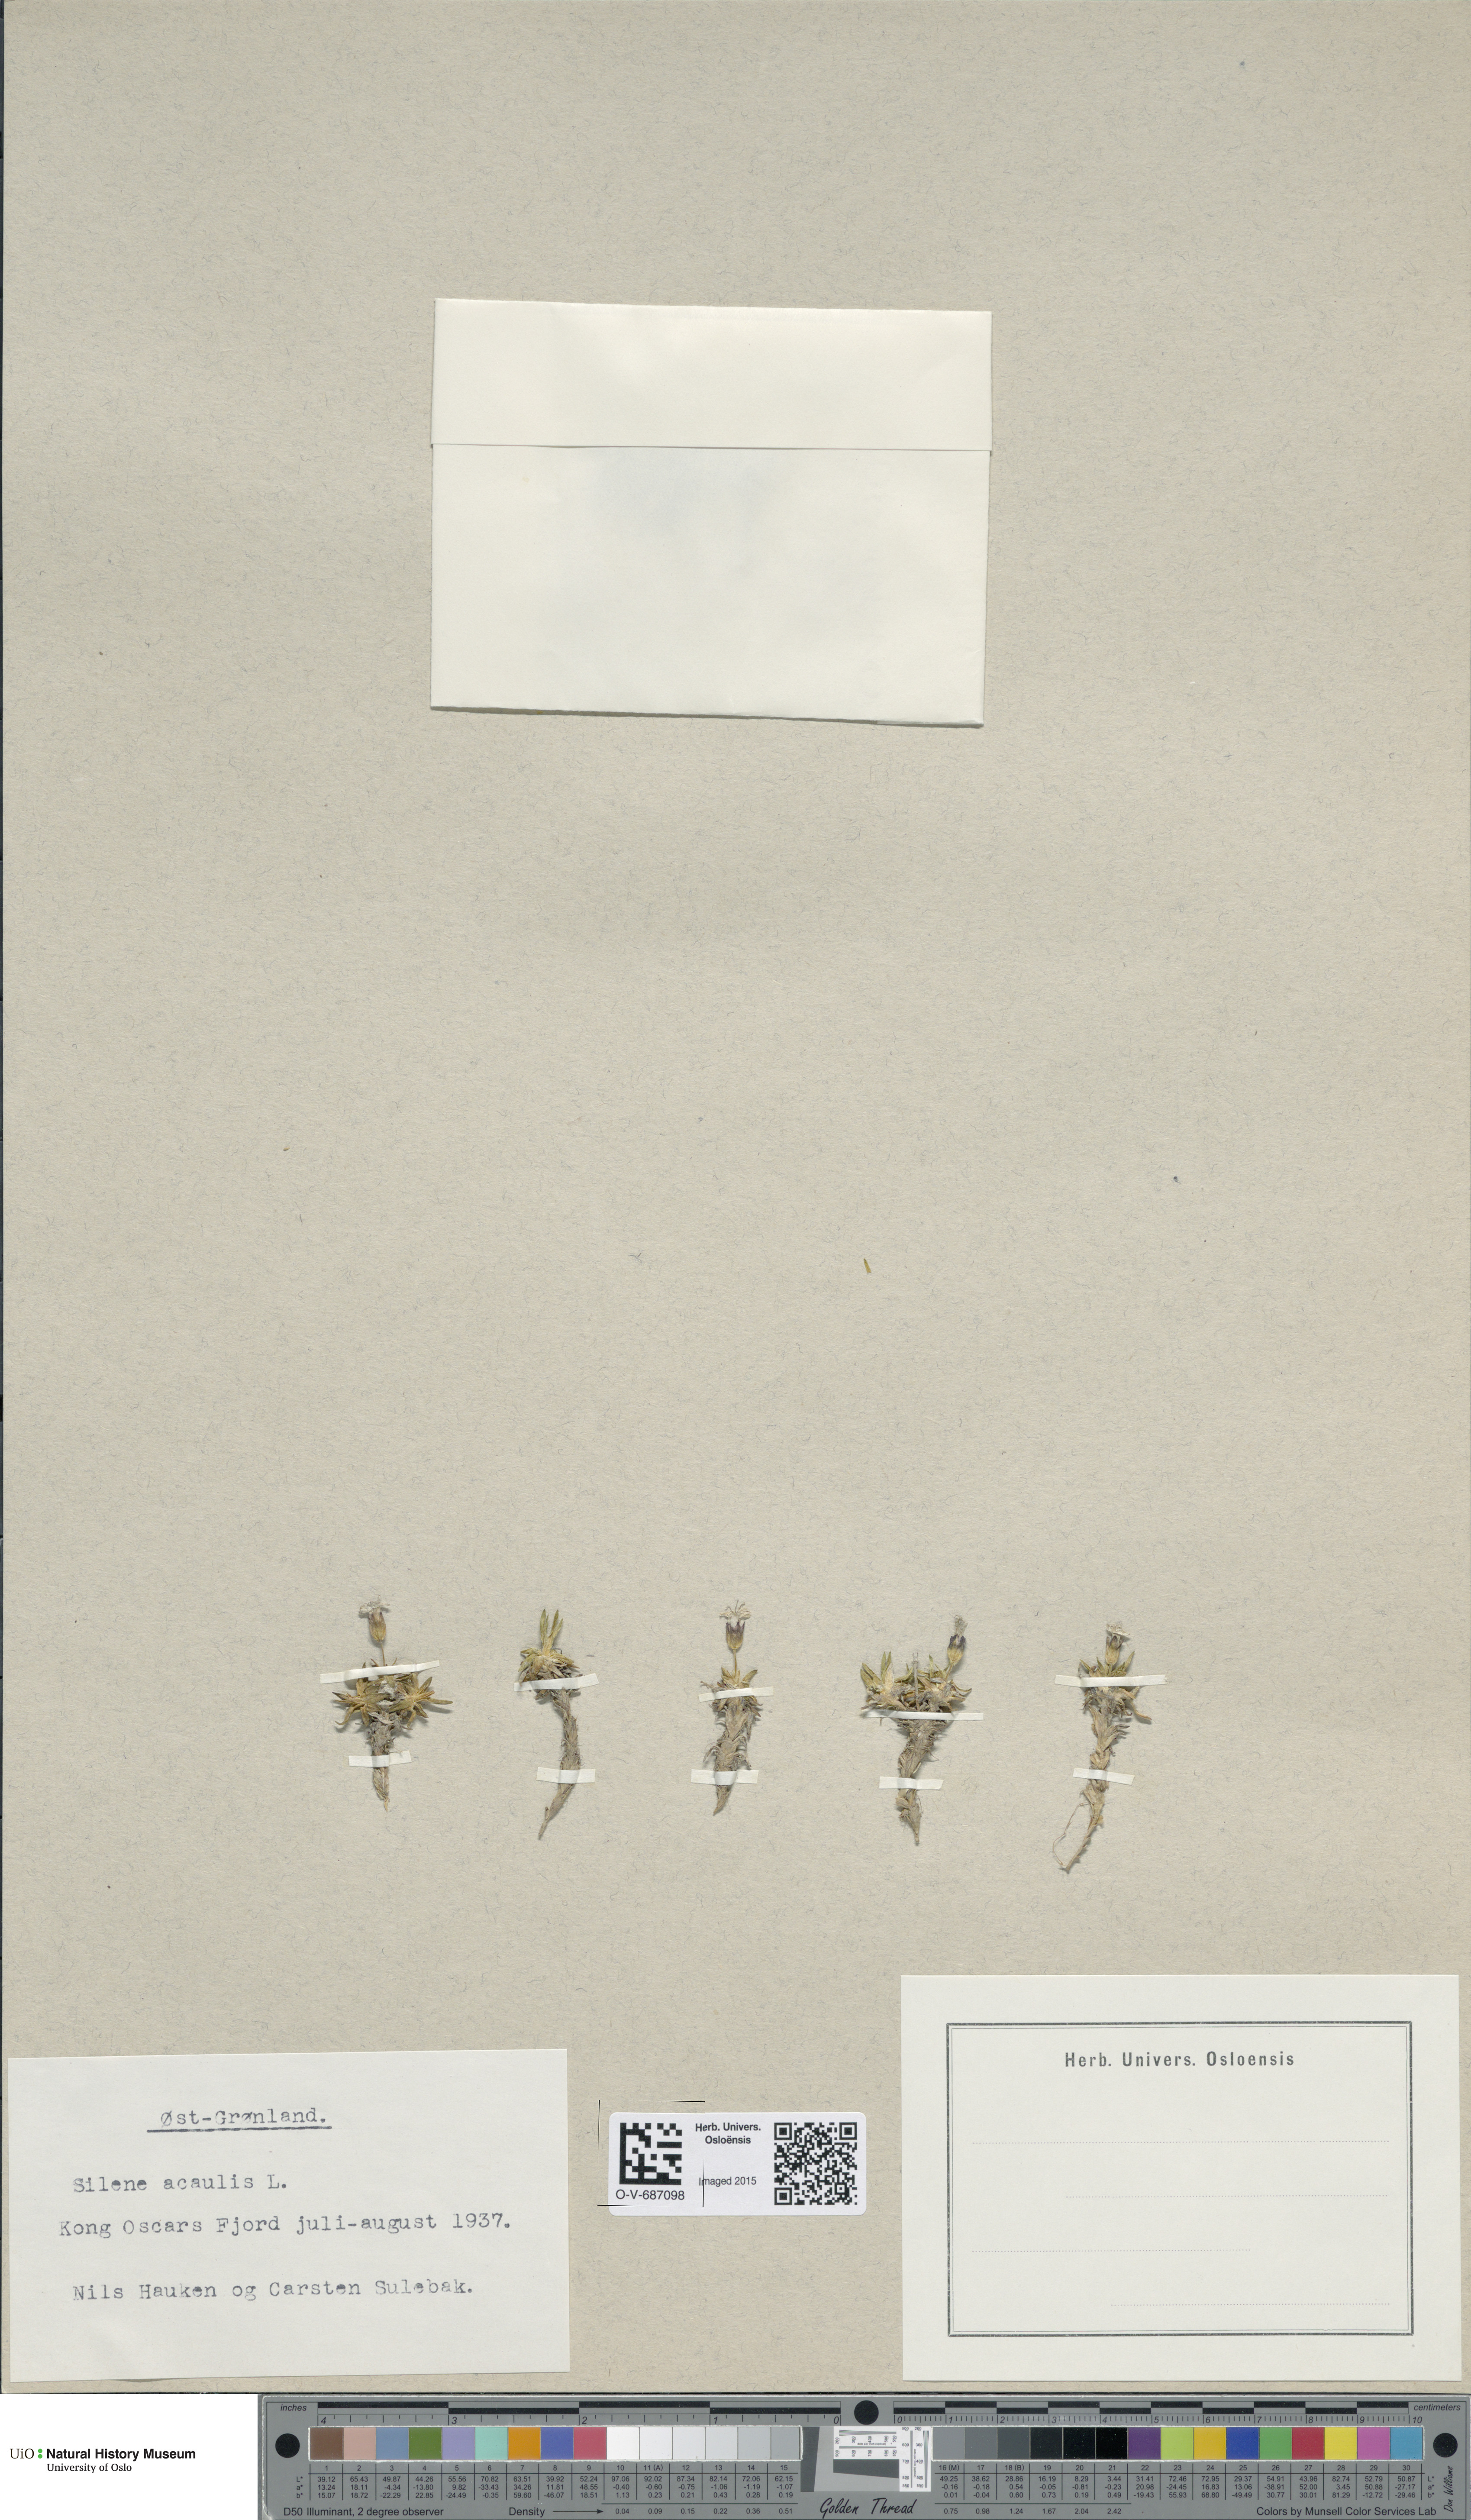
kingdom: Plantae
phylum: Tracheophyta
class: Magnoliopsida
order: Caryophyllales
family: Caryophyllaceae
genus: Silene
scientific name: Silene acaulis
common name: Moss campion
